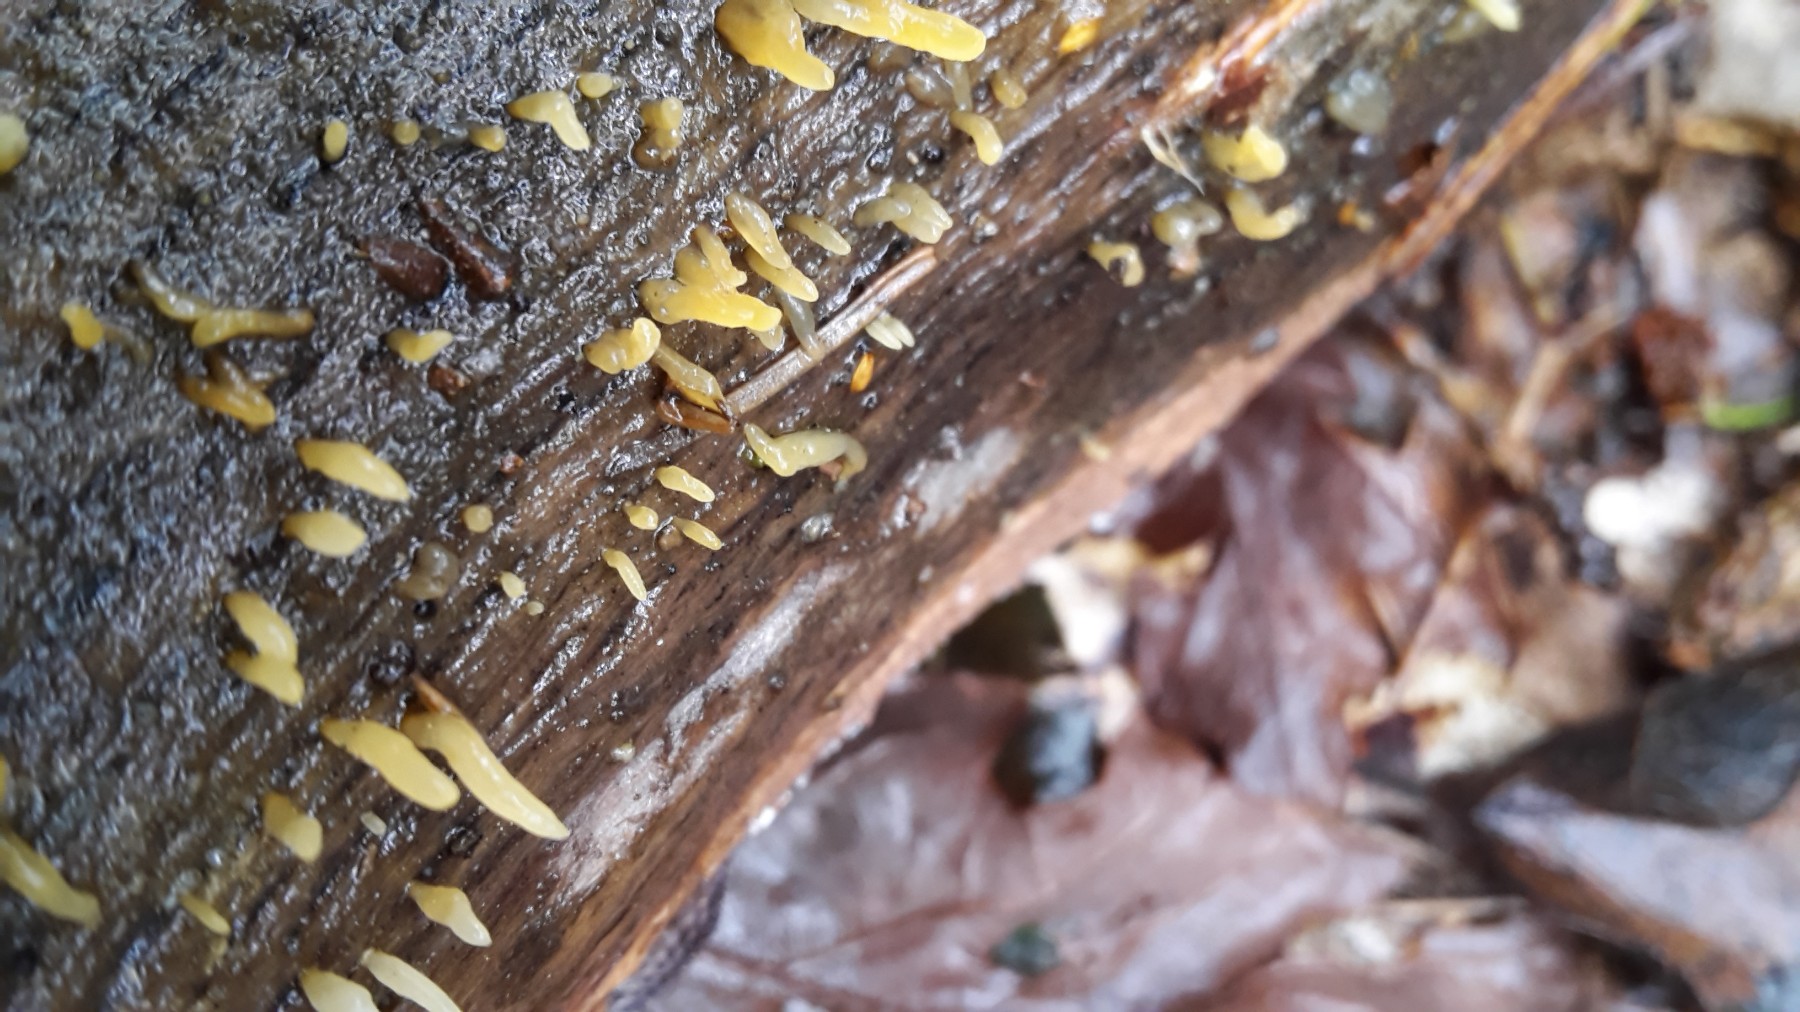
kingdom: Fungi
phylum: Basidiomycota
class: Dacrymycetes
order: Dacrymycetales
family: Dacrymycetaceae
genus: Calocera
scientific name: Calocera cornea
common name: liden guldgaffel
